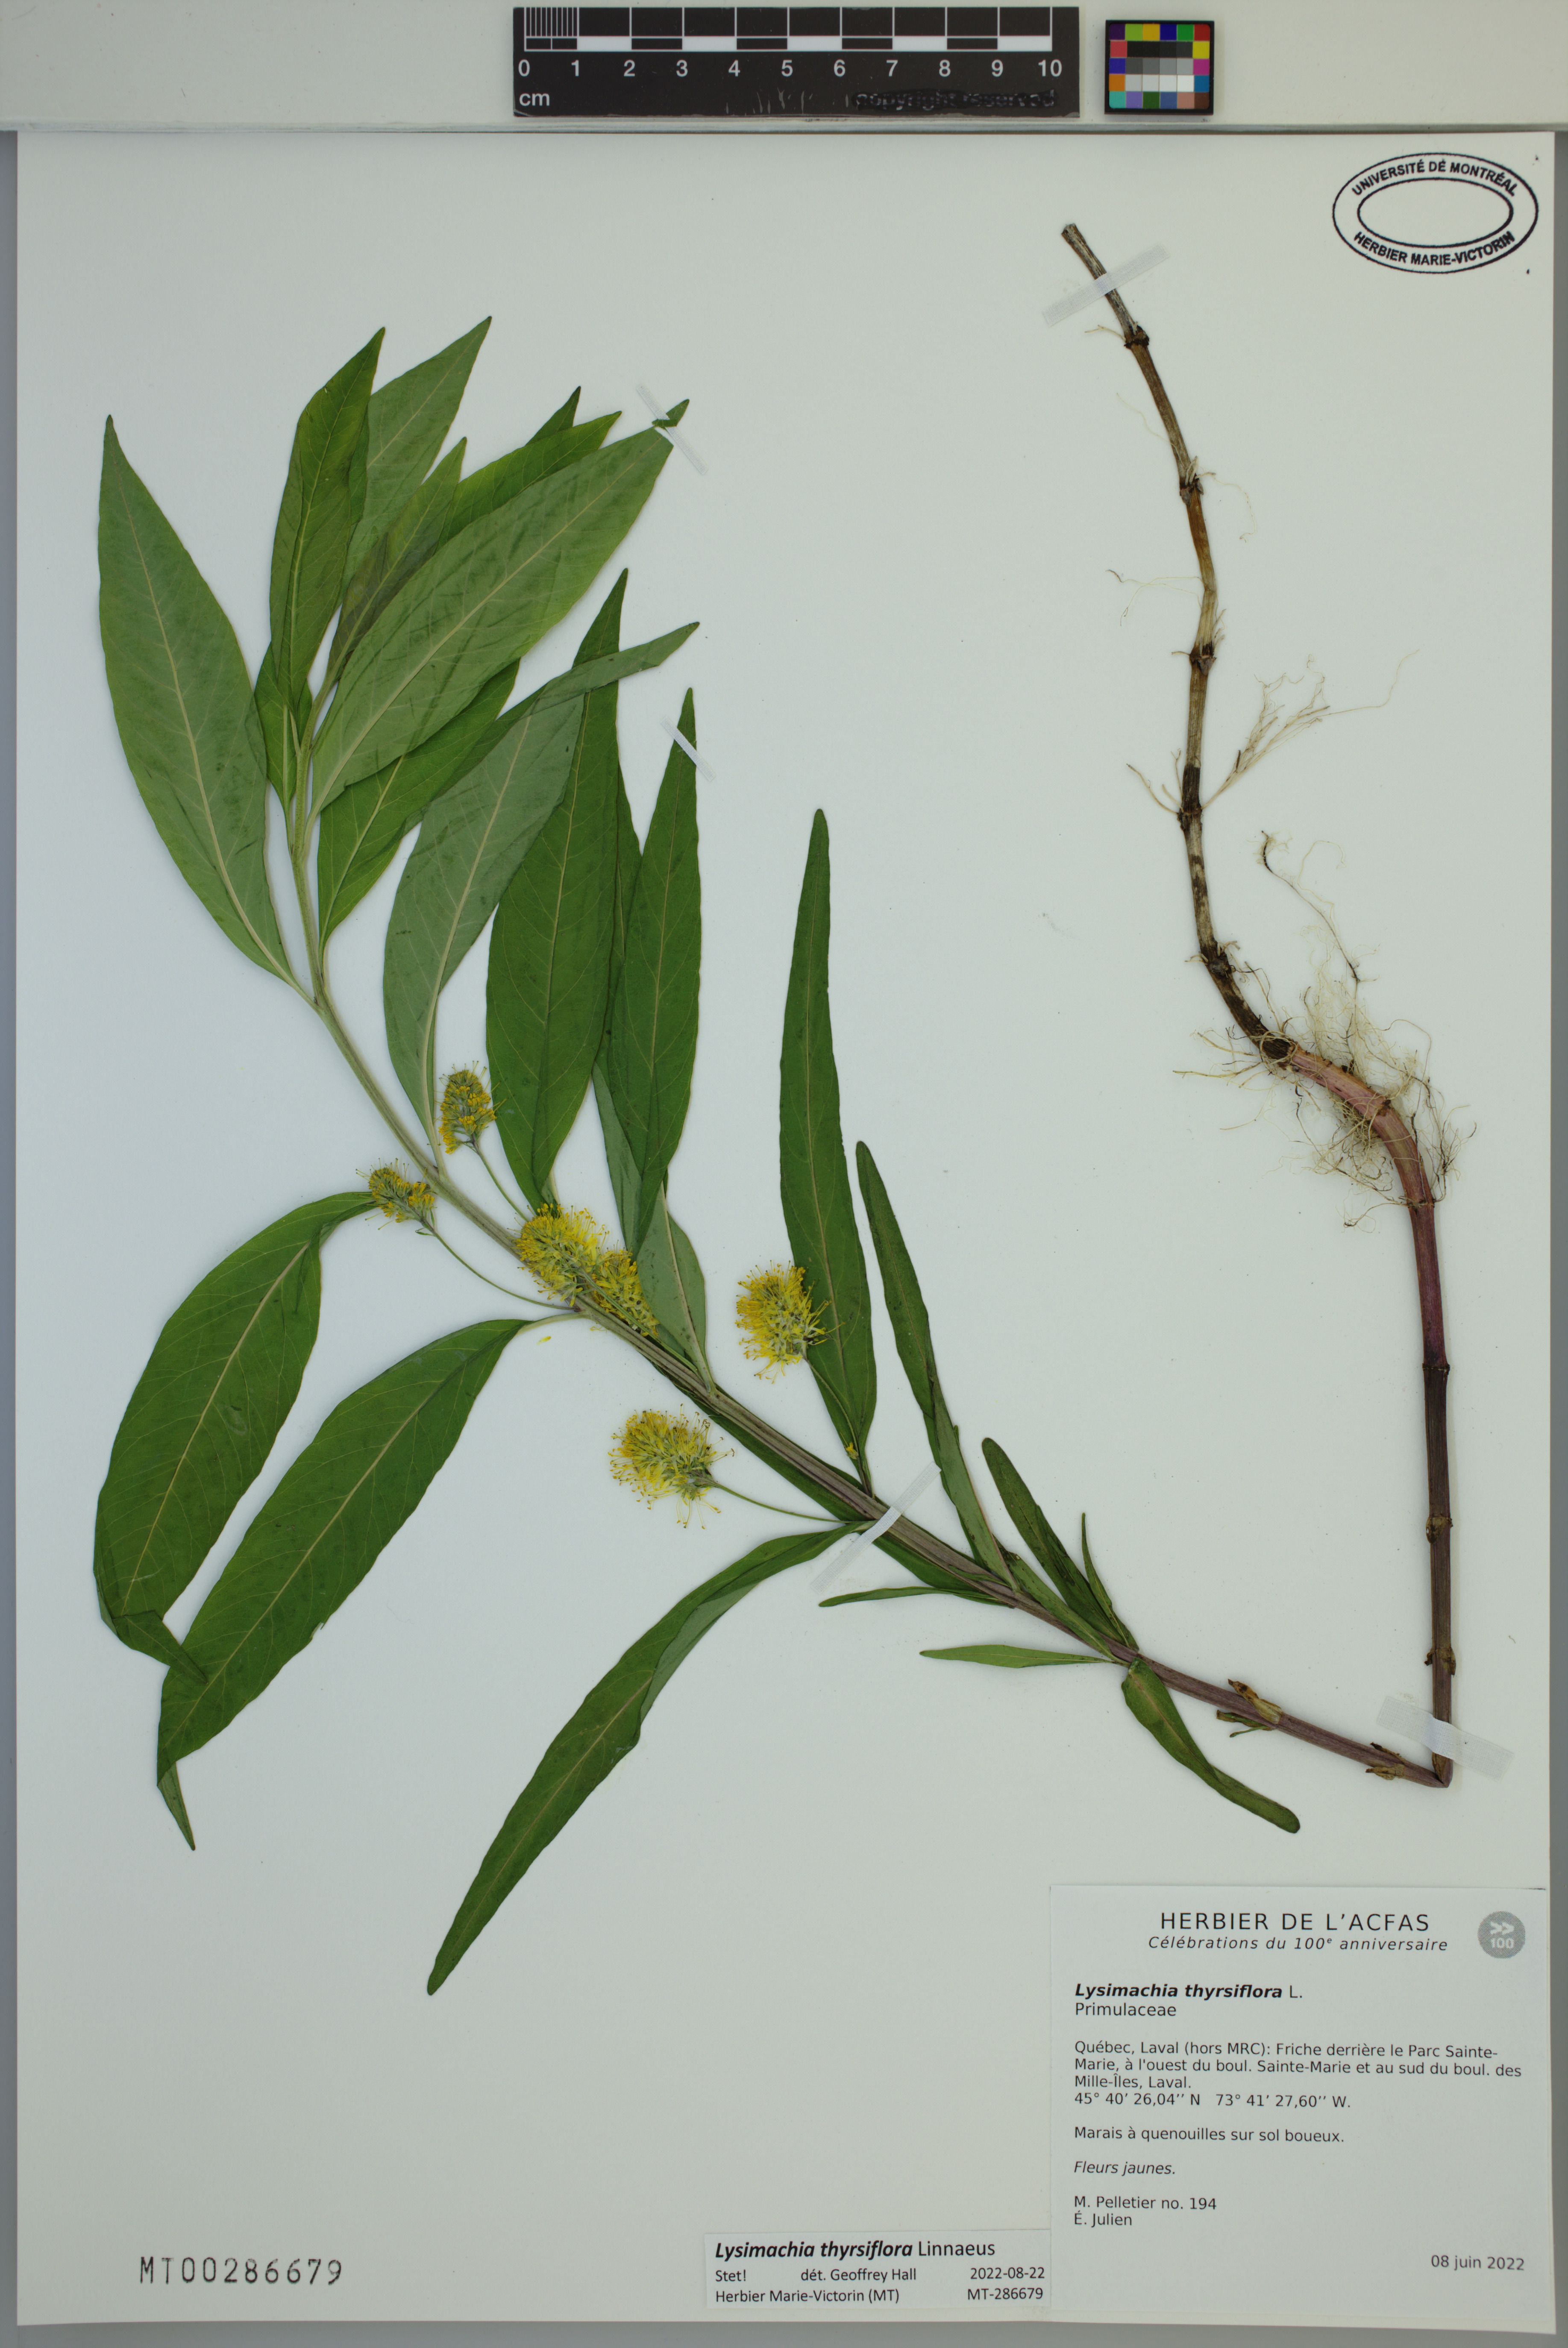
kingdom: Plantae
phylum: Tracheophyta
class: Magnoliopsida
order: Ericales
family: Primulaceae
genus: Lysimachia
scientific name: Lysimachia thyrsiflora
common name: Tufted loosestrife
